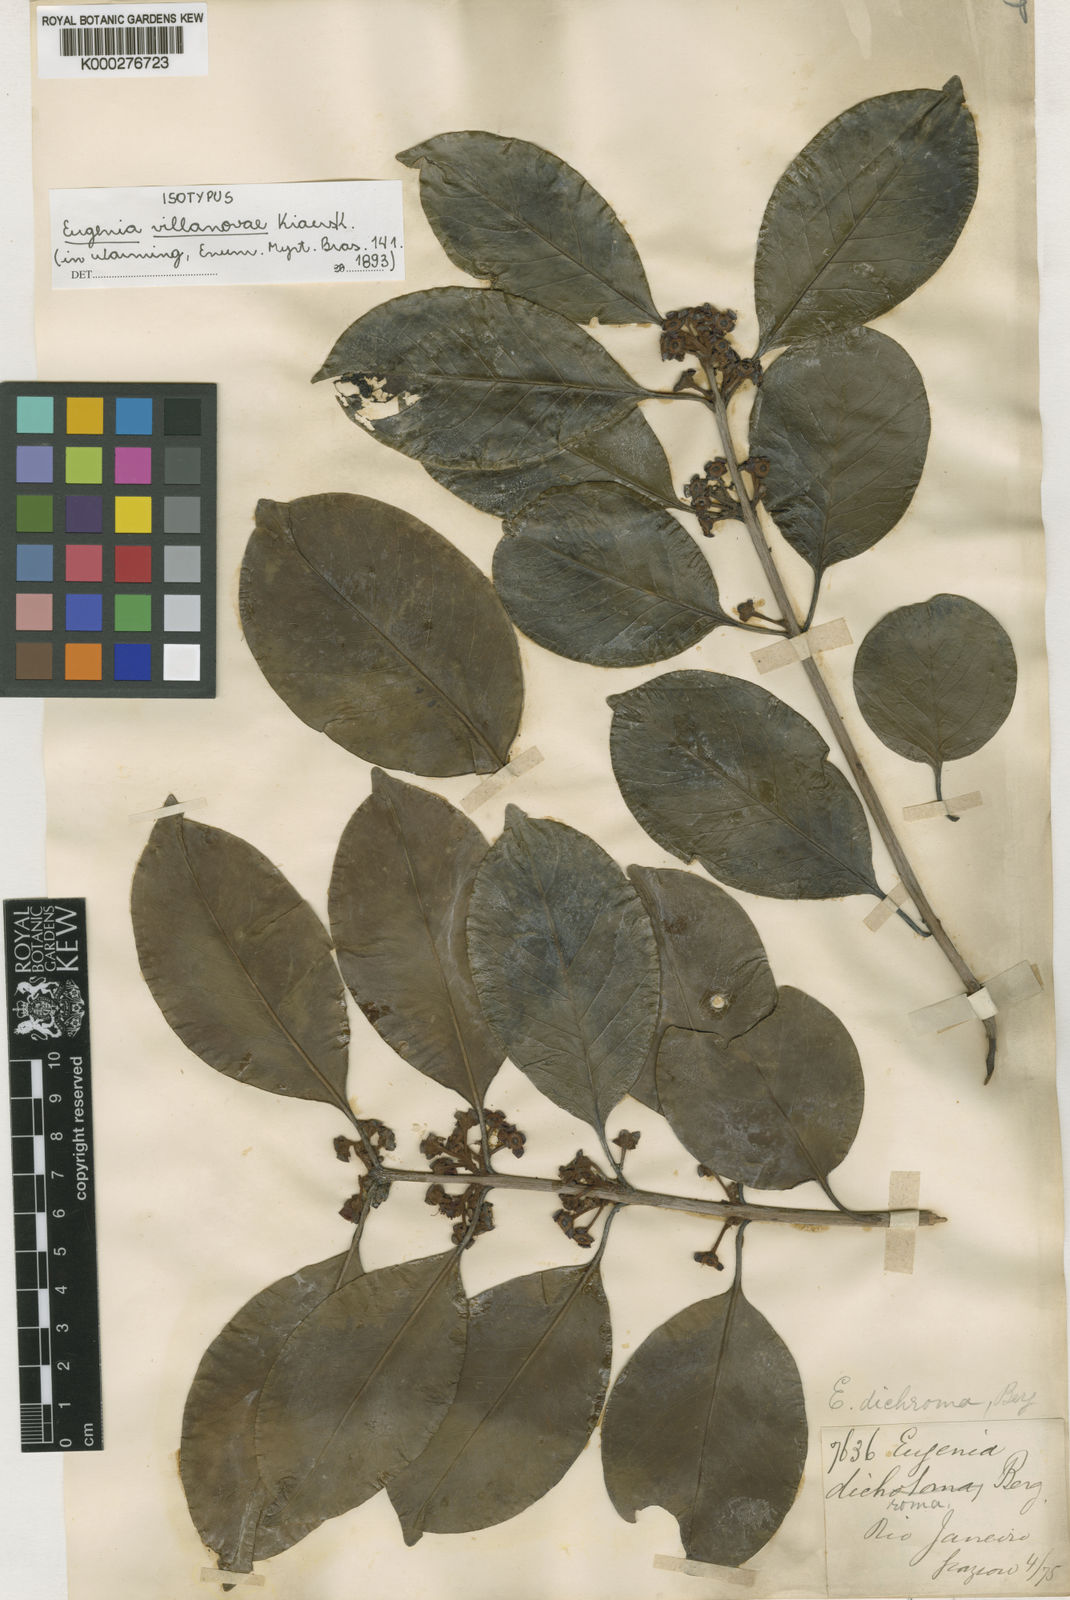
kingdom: Plantae
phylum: Tracheophyta
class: Magnoliopsida
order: Myrtales
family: Myrtaceae
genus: Eugenia
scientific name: Eugenia villae-novae
